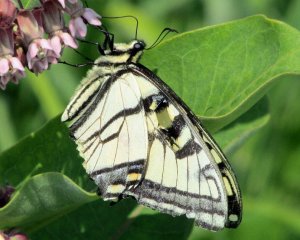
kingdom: Animalia
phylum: Arthropoda
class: Insecta
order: Lepidoptera
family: Papilionidae
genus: Pterourus
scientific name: Pterourus canadensis
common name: Canadian Tiger Swallowtail
